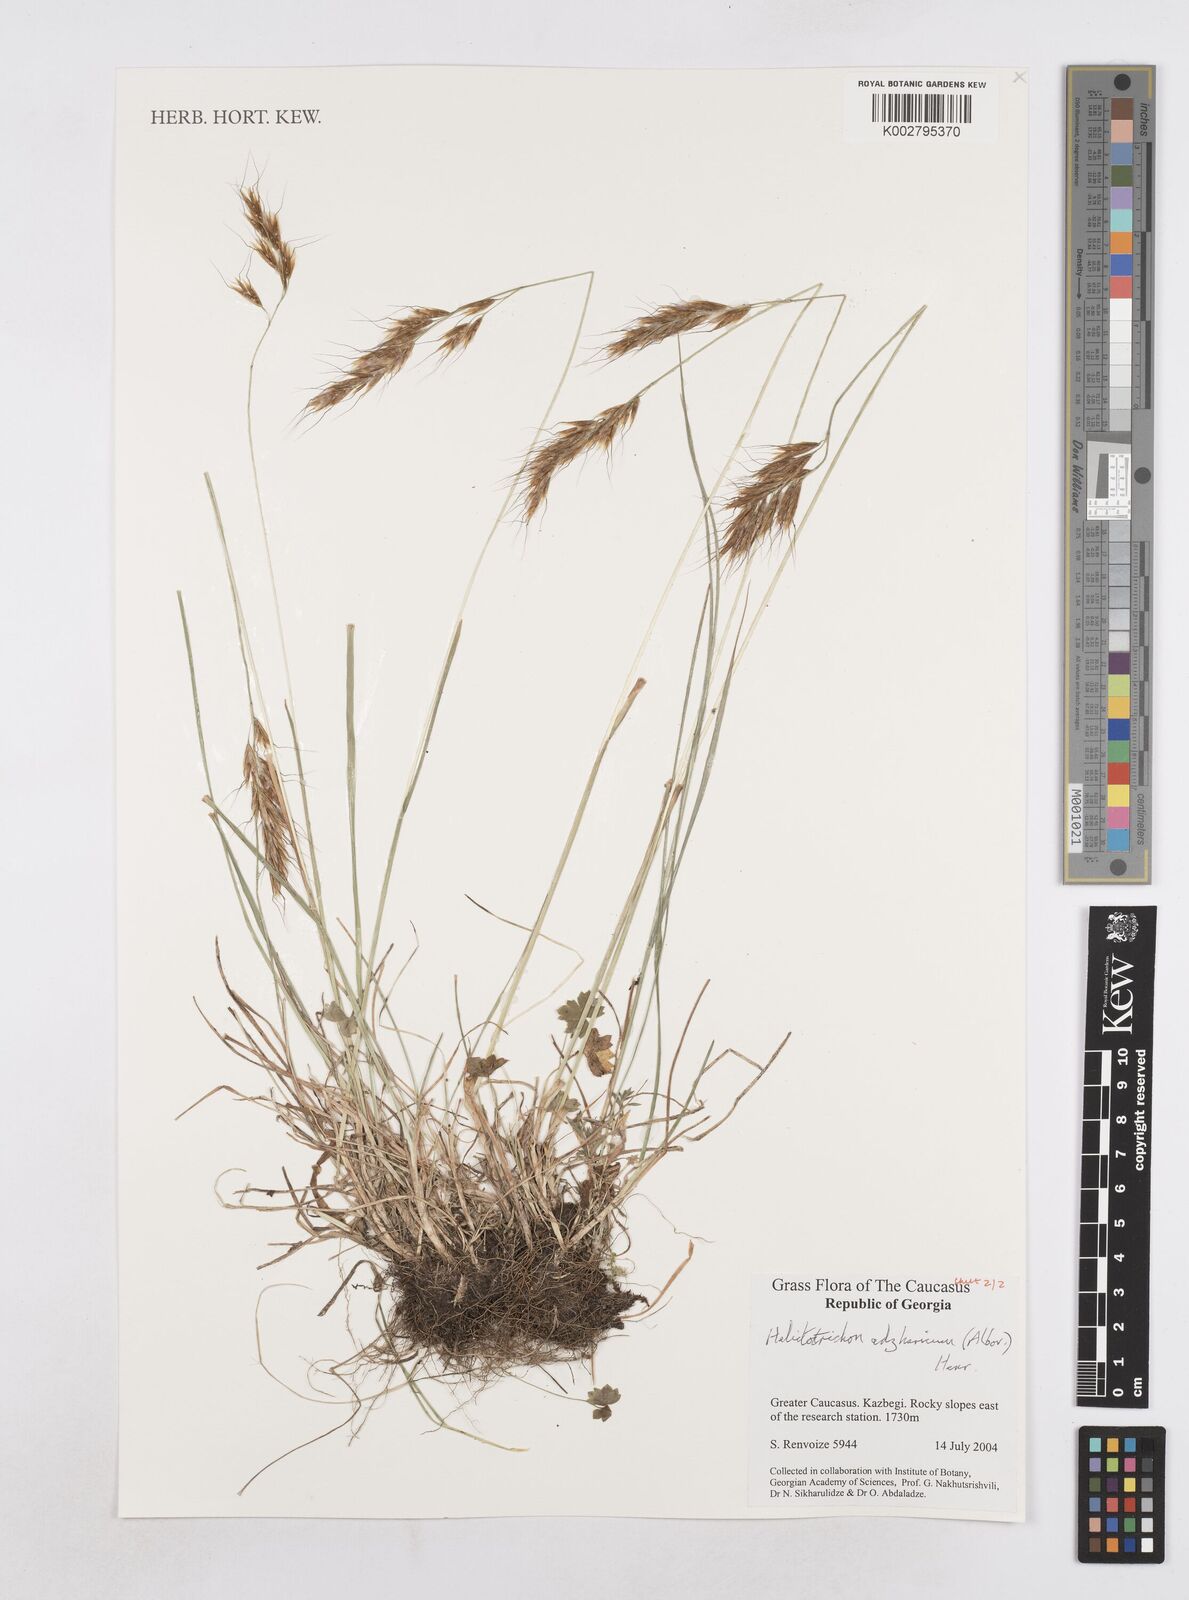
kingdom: Plantae
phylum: Tracheophyta
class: Liliopsida
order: Poales
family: Poaceae
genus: Helictotrichon
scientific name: Helictotrichon
